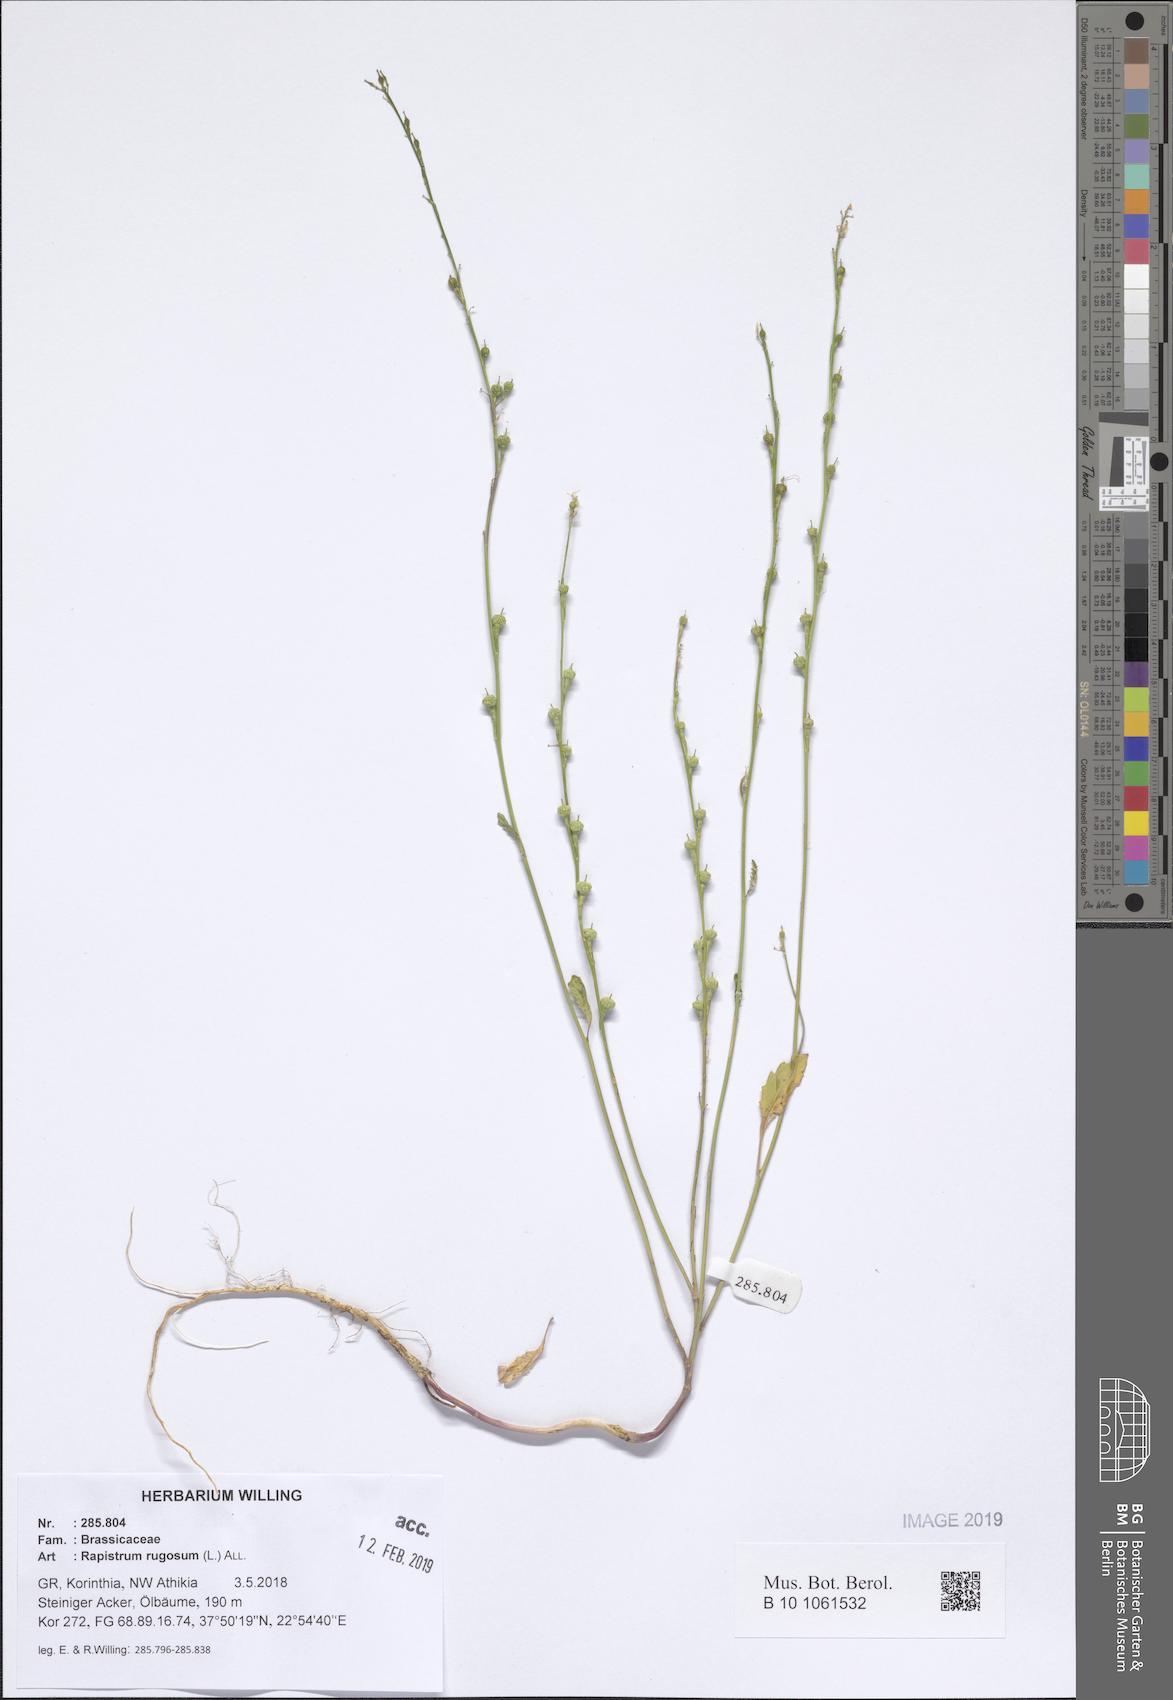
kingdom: Plantae
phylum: Tracheophyta
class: Magnoliopsida
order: Brassicales
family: Brassicaceae
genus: Rapistrum
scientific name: Rapistrum rugosum
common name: Annual bastardcabbage
